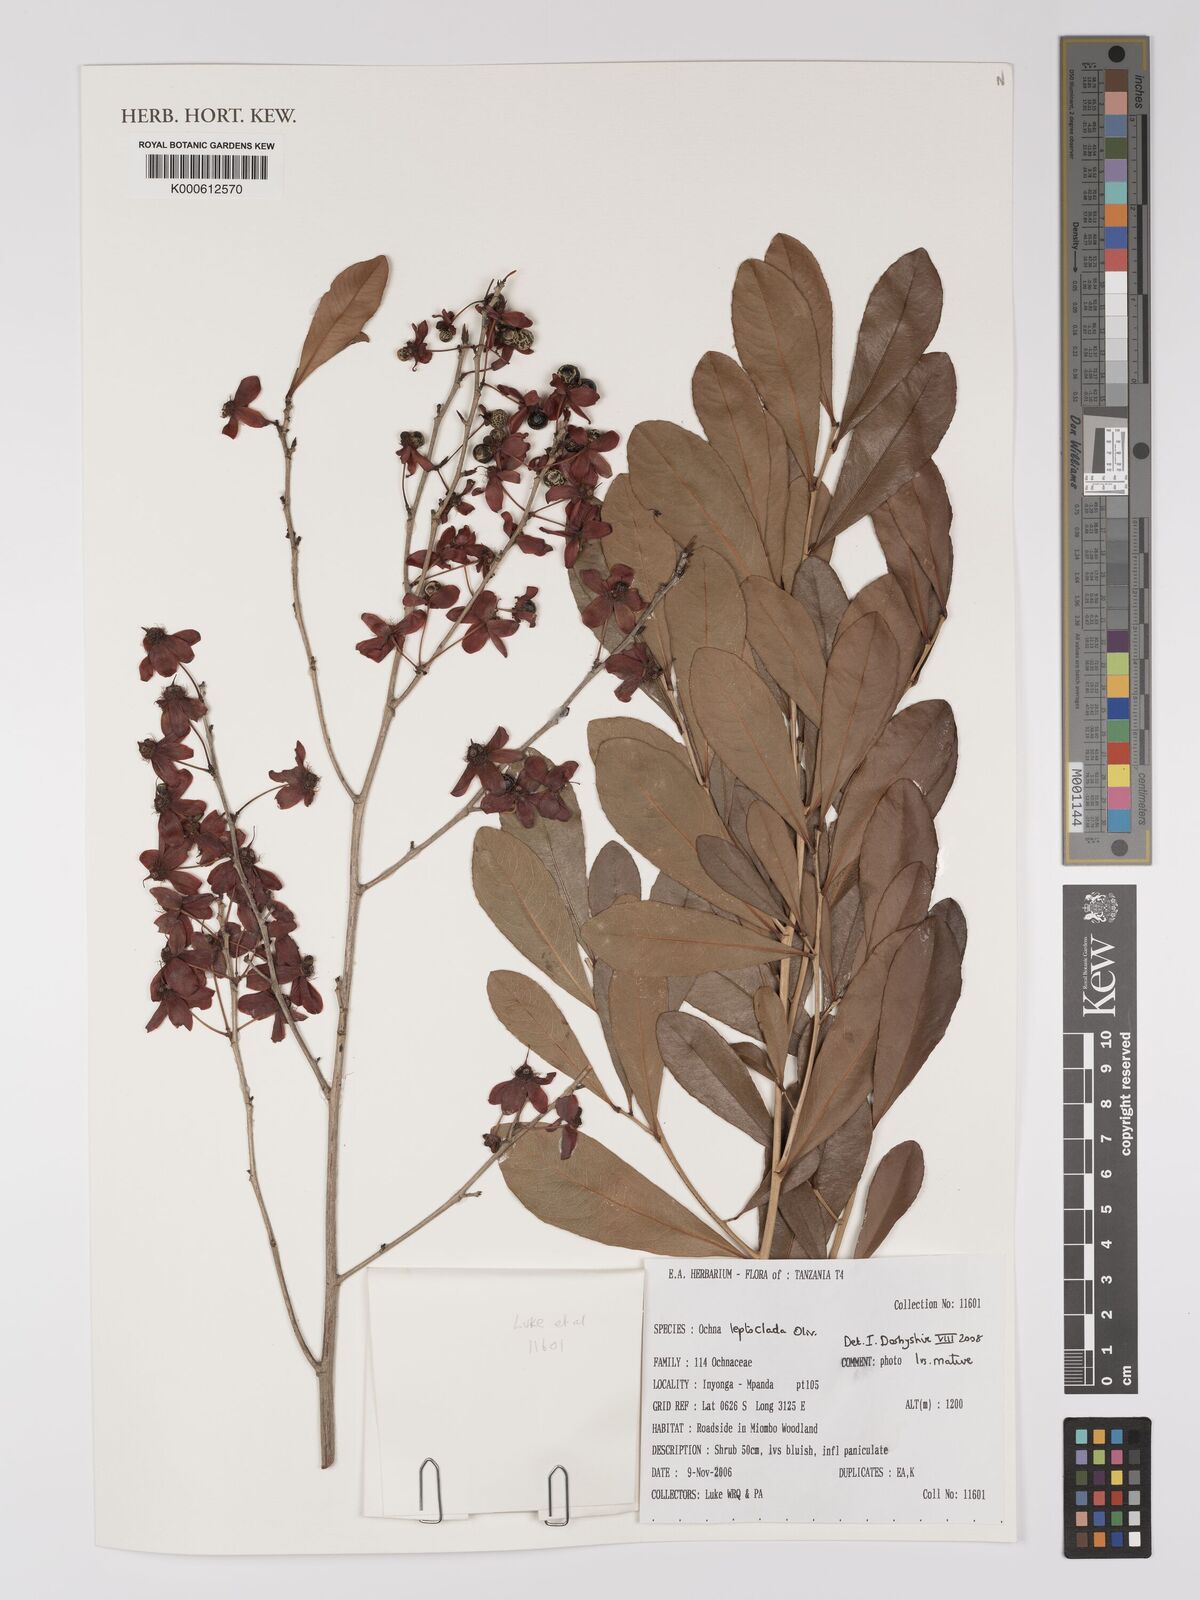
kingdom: Plantae
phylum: Tracheophyta
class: Magnoliopsida
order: Malpighiales
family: Ochnaceae
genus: Ochna
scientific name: Ochna leptoclada
